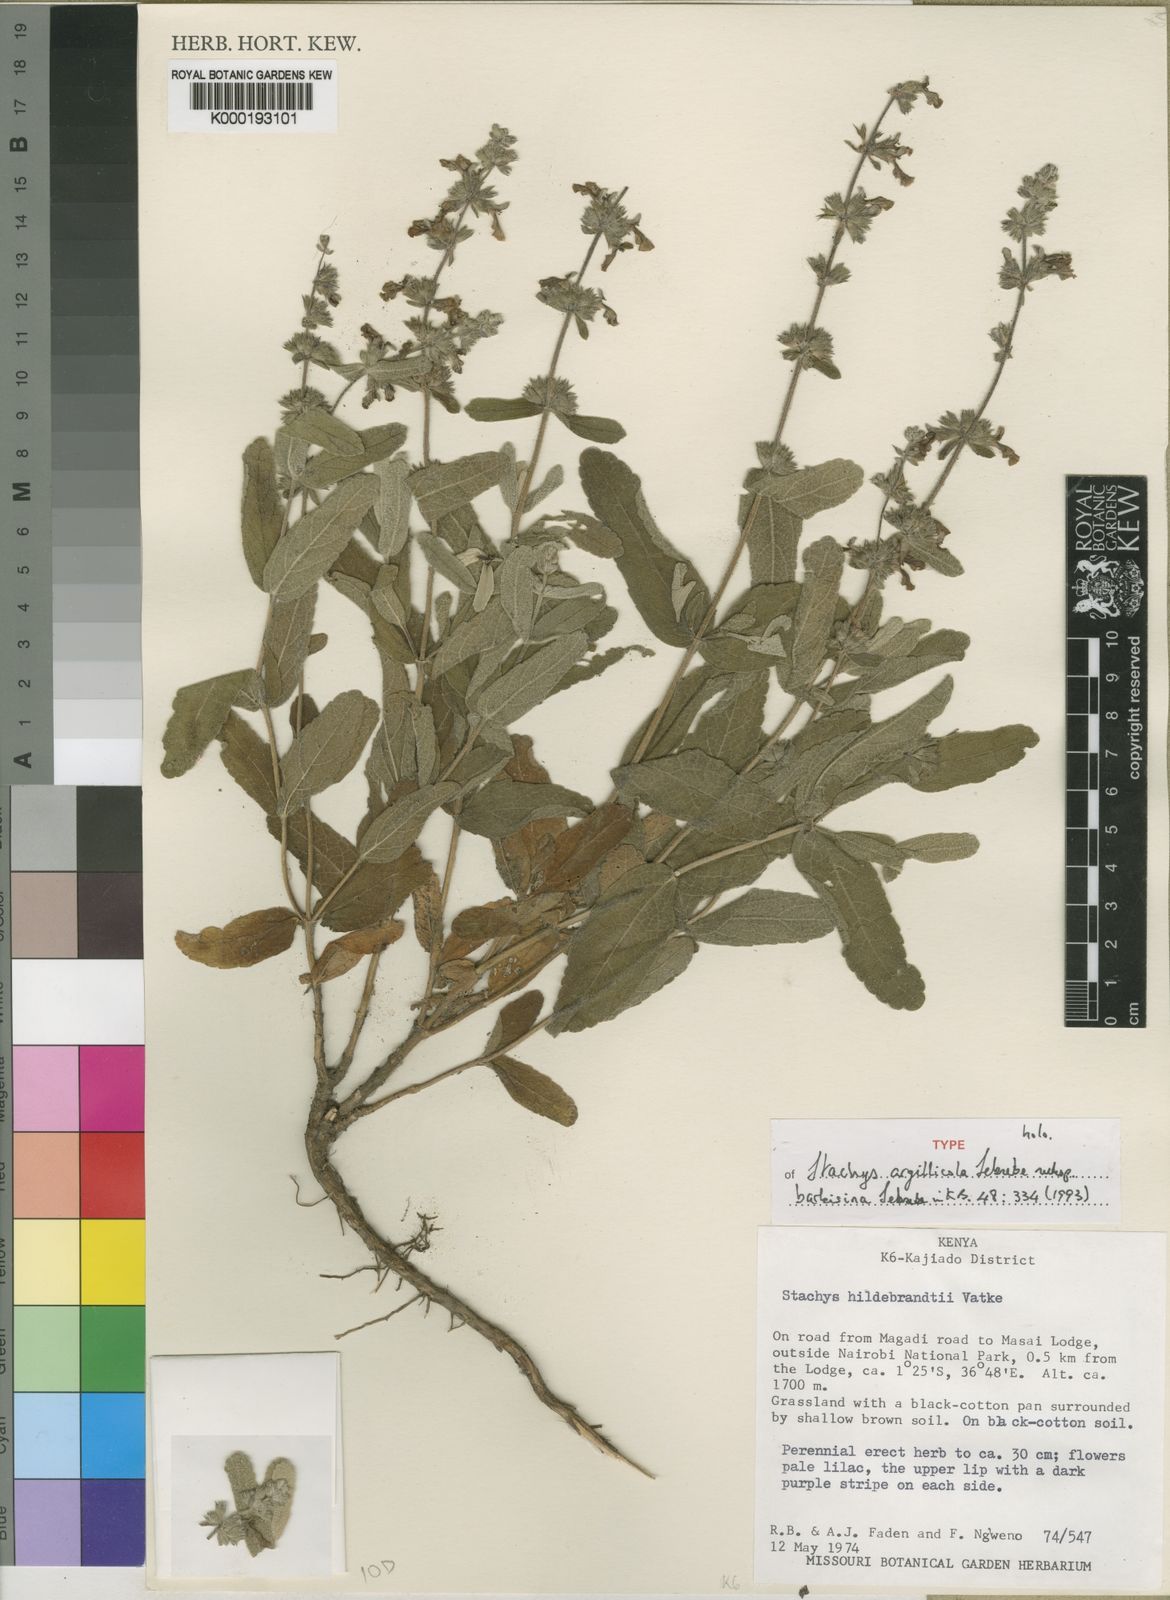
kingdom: Plantae
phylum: Tracheophyta
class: Magnoliopsida
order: Lamiales
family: Lamiaceae
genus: Stachys
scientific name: Stachys argillicola
